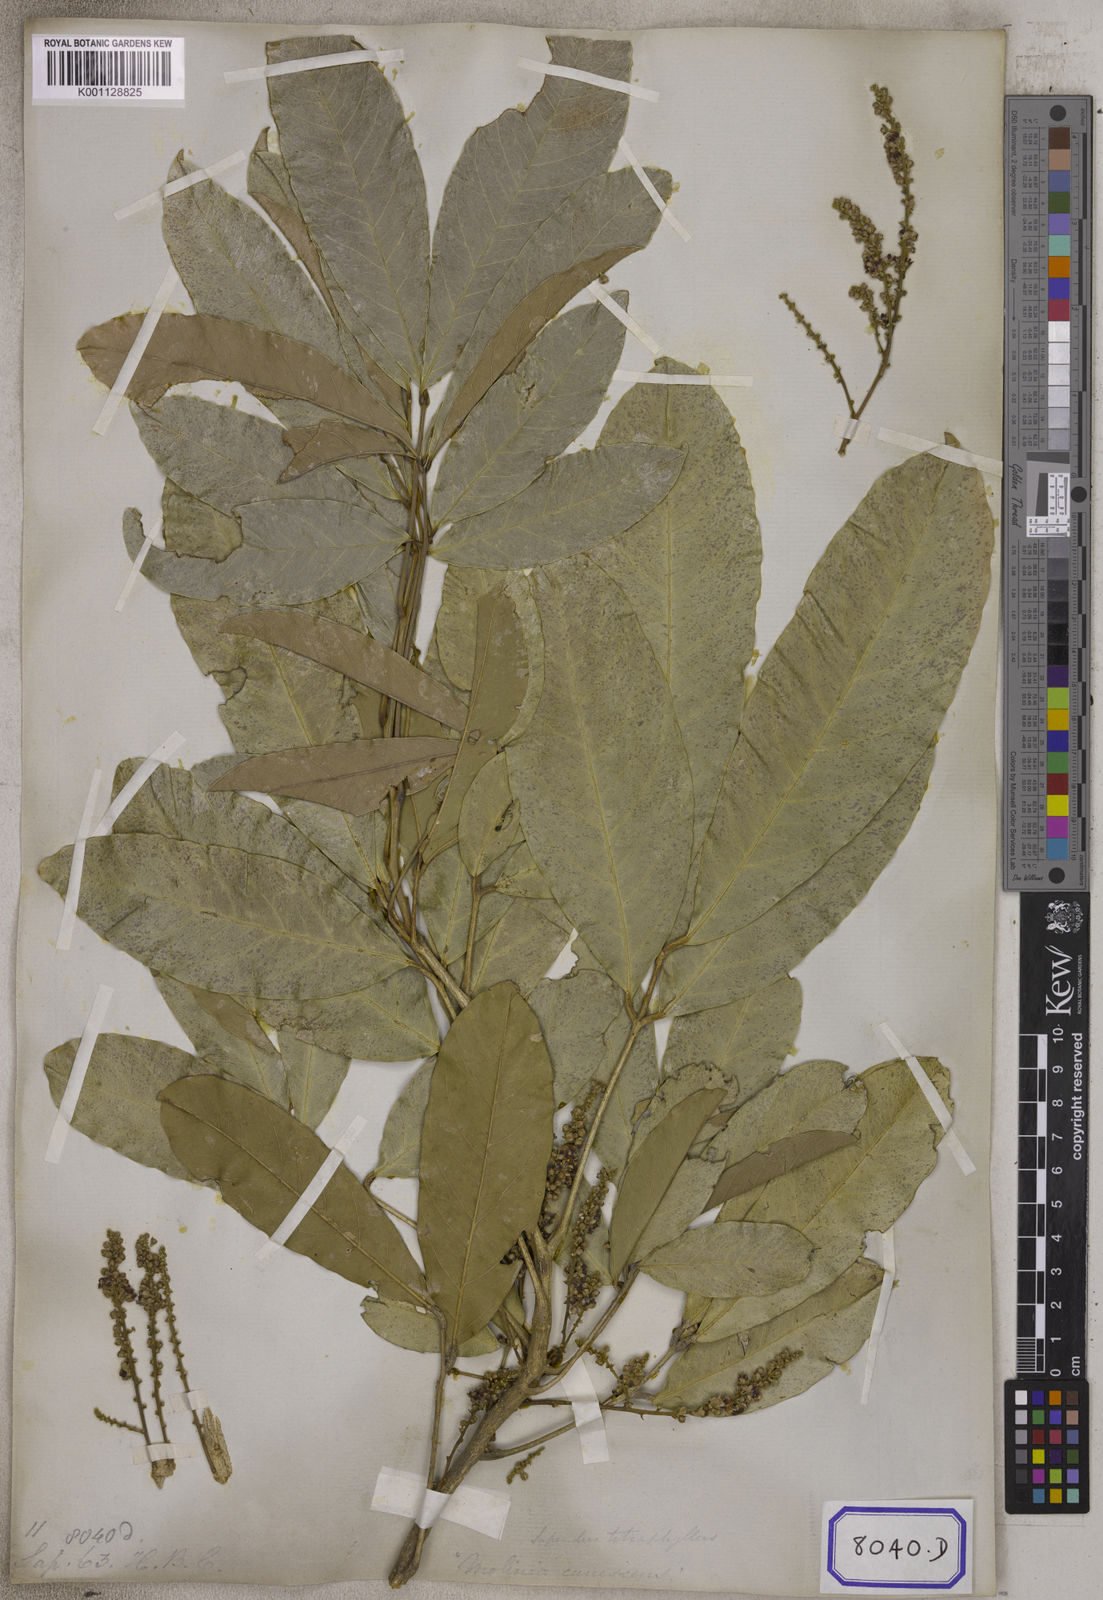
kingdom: Plantae
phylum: Tracheophyta
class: Magnoliopsida
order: Sapindales
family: Sapindaceae
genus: Lepisanthes
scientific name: Lepisanthes tetraphylla
